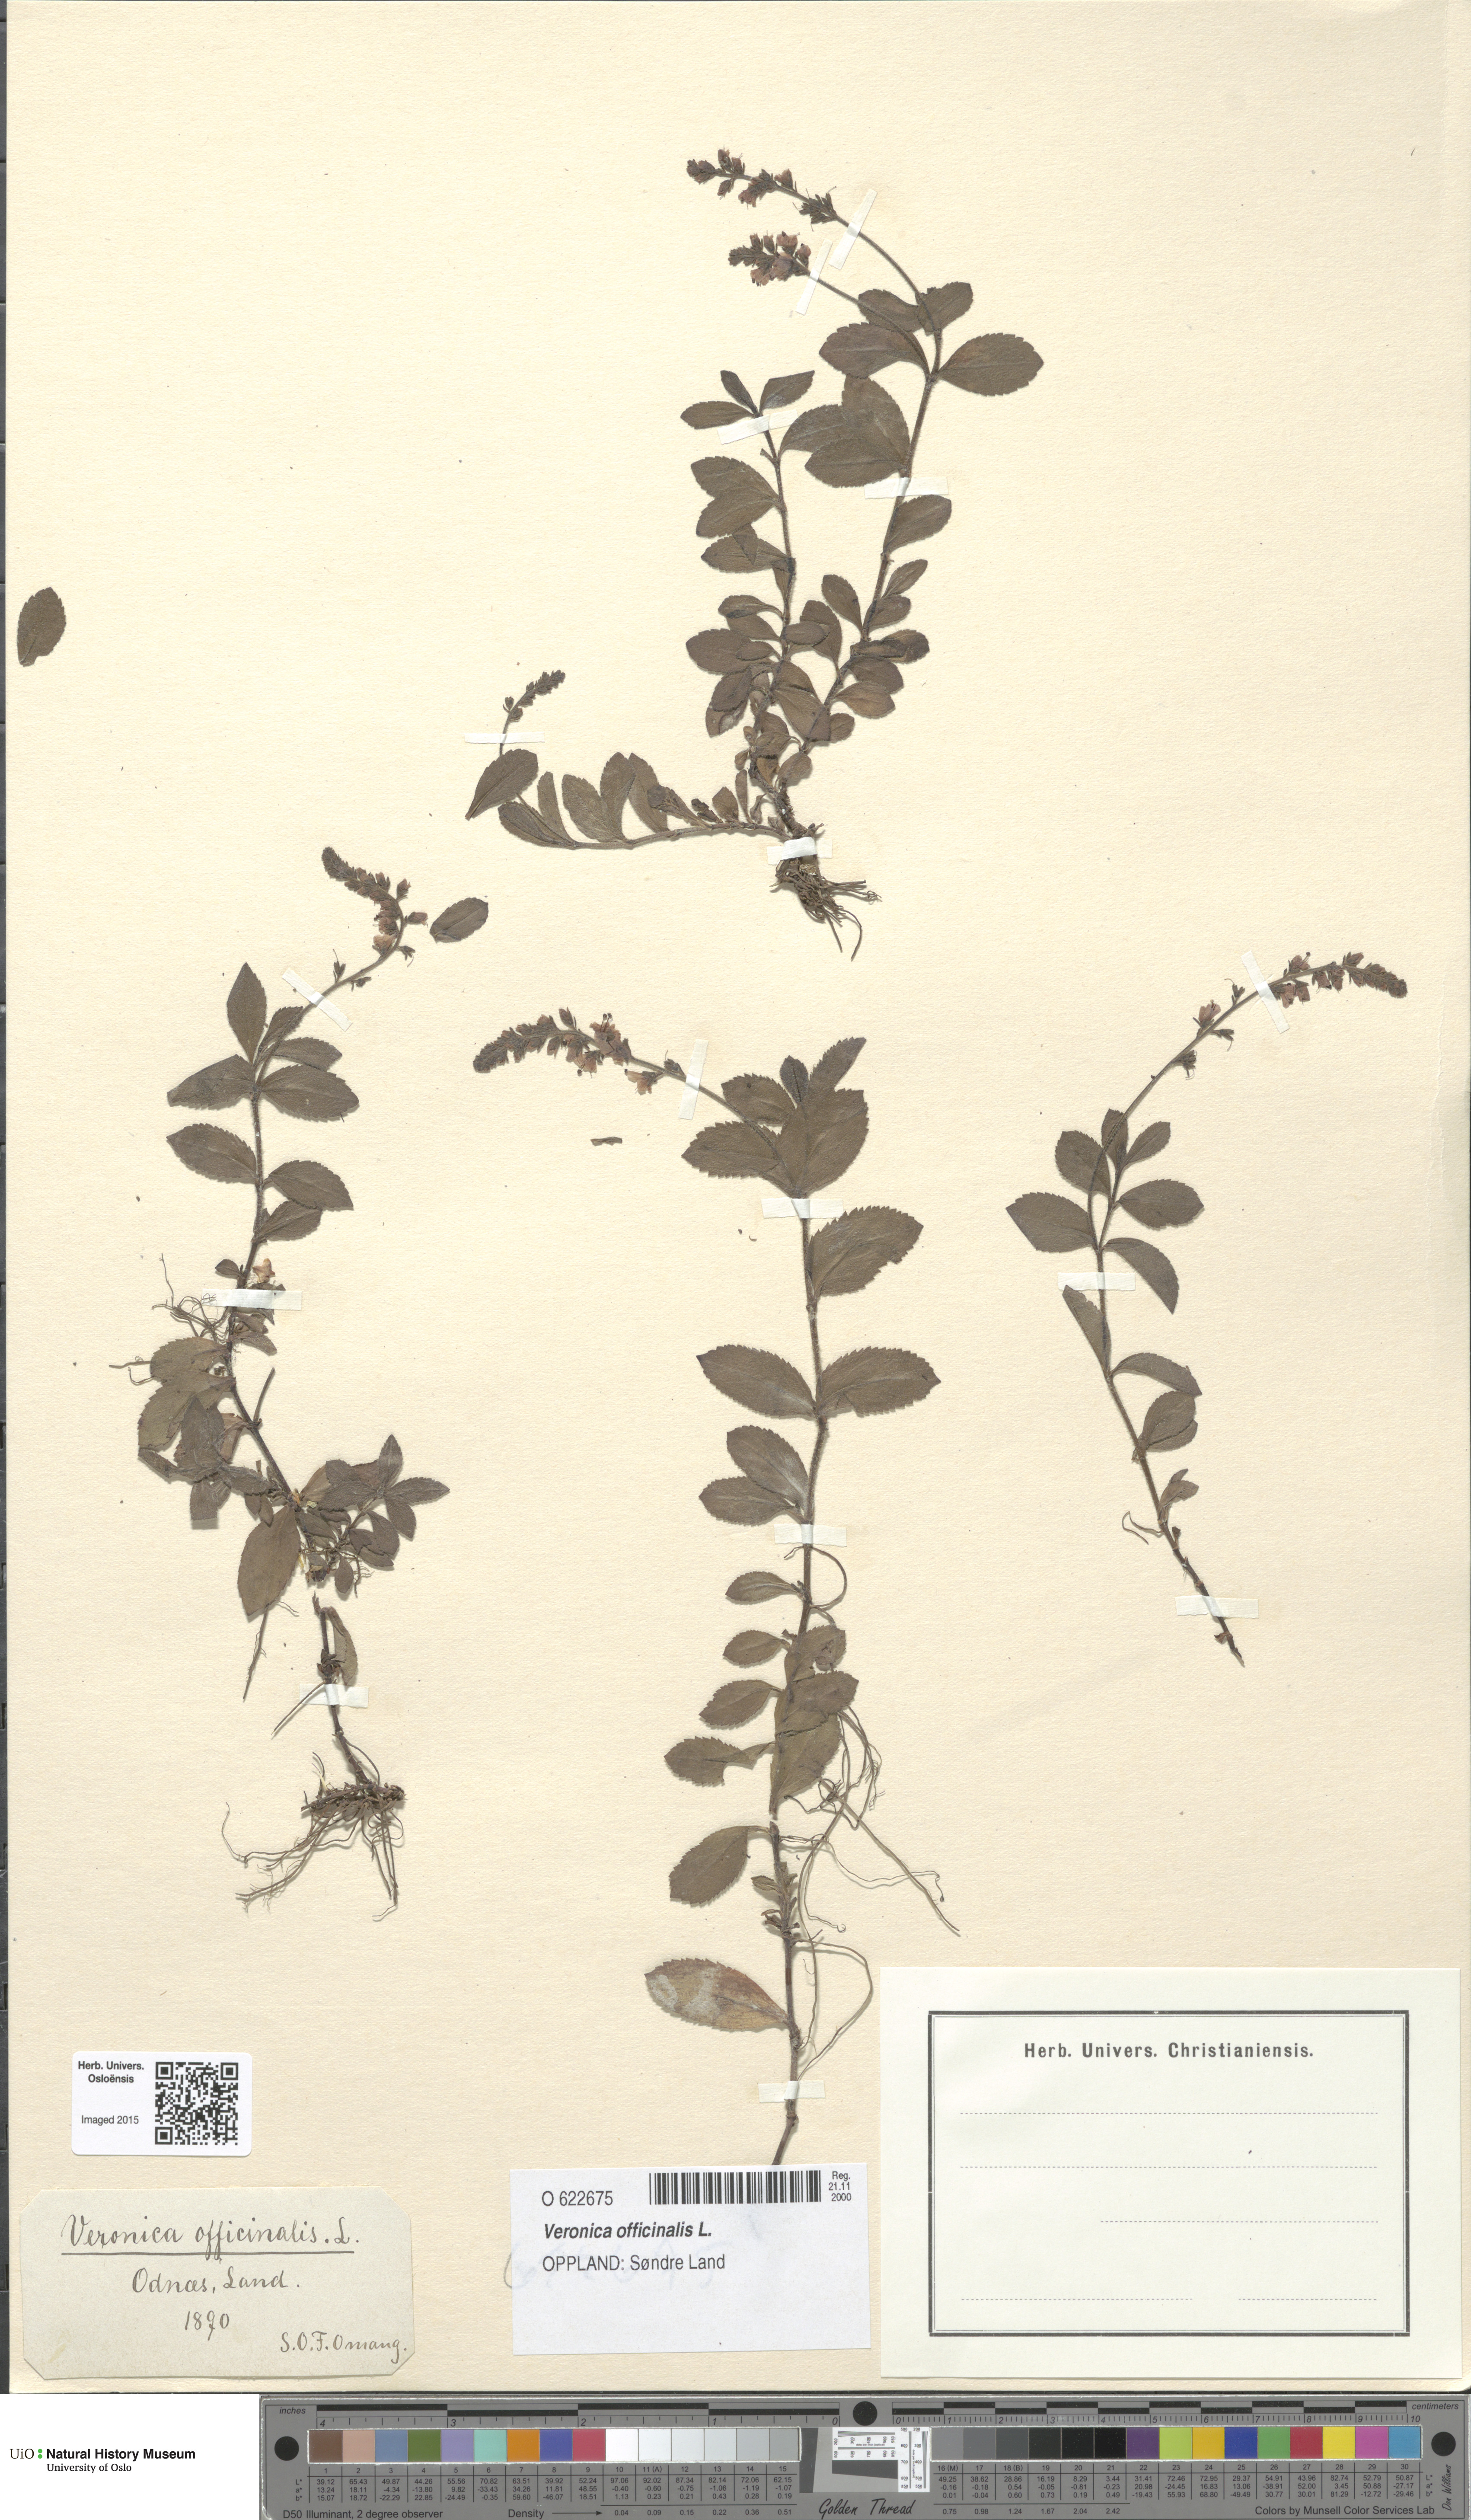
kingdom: Plantae
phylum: Tracheophyta
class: Magnoliopsida
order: Lamiales
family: Plantaginaceae
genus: Veronica
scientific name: Veronica officinalis
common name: Common speedwell
